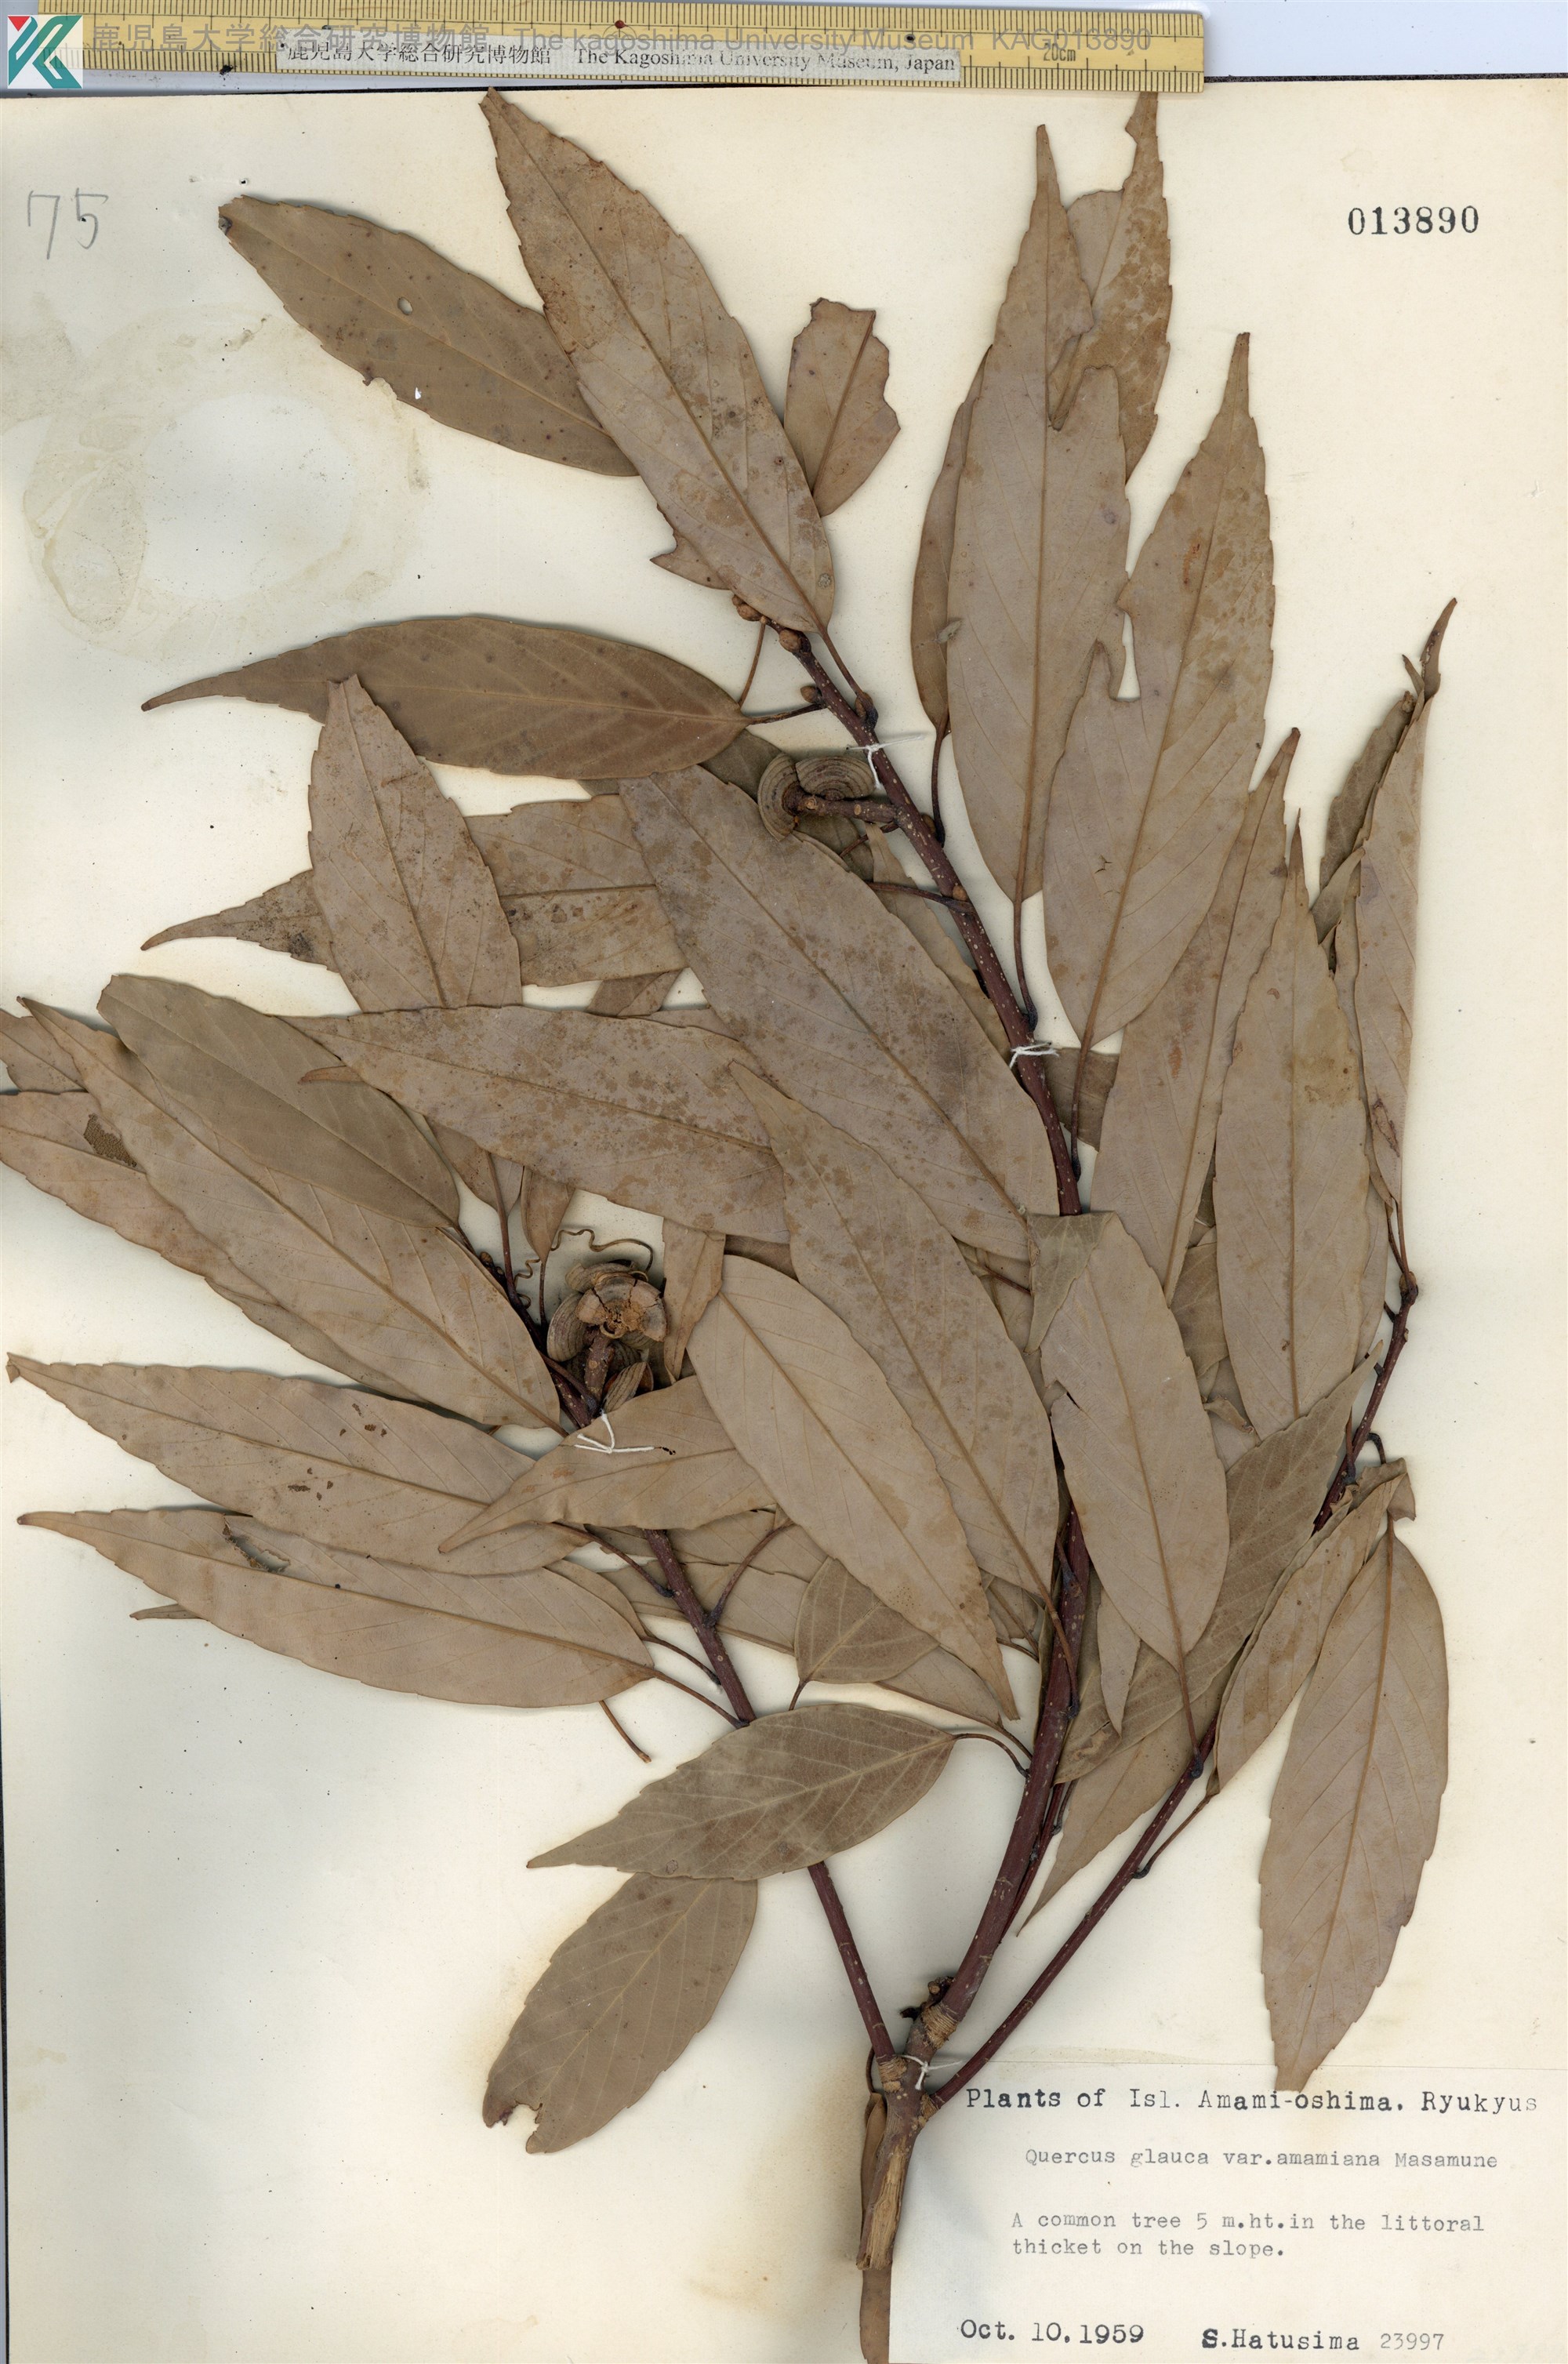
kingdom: Plantae
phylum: Tracheophyta
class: Magnoliopsida
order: Fagales
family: Fagaceae
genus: Quercus
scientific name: Quercus glauca
